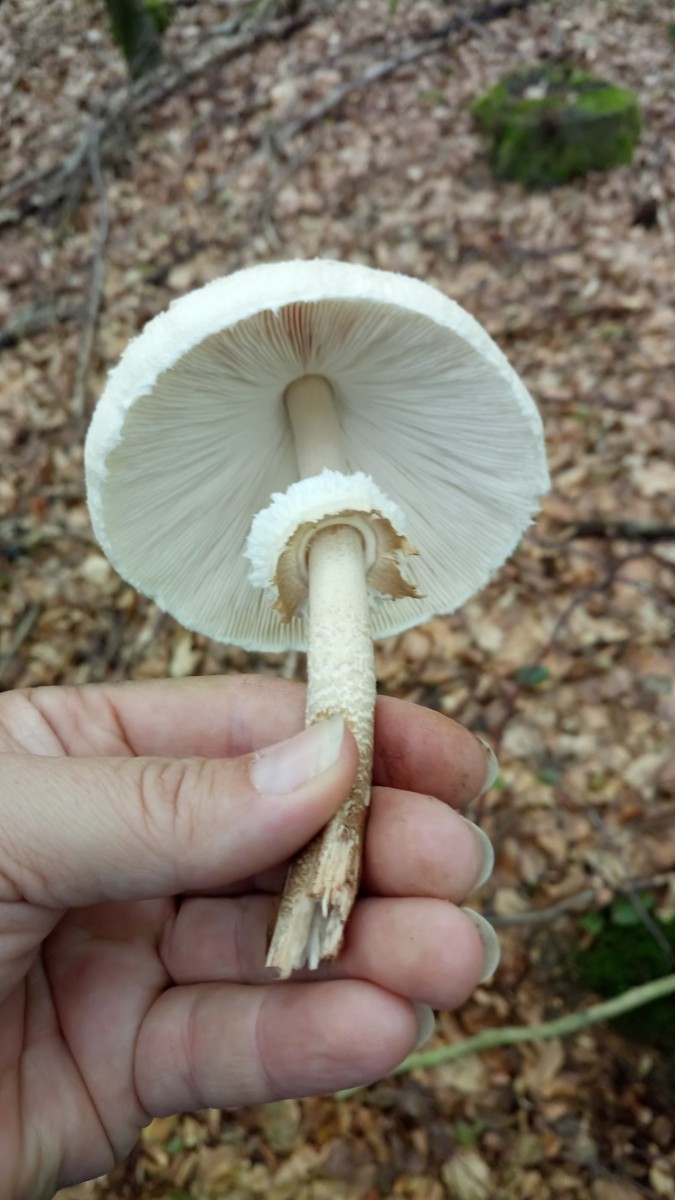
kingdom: Fungi
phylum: Basidiomycota
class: Agaricomycetes
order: Agaricales
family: Agaricaceae
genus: Macrolepiota
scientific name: Macrolepiota mastoidea
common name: puklet kæmpeparasolhat
